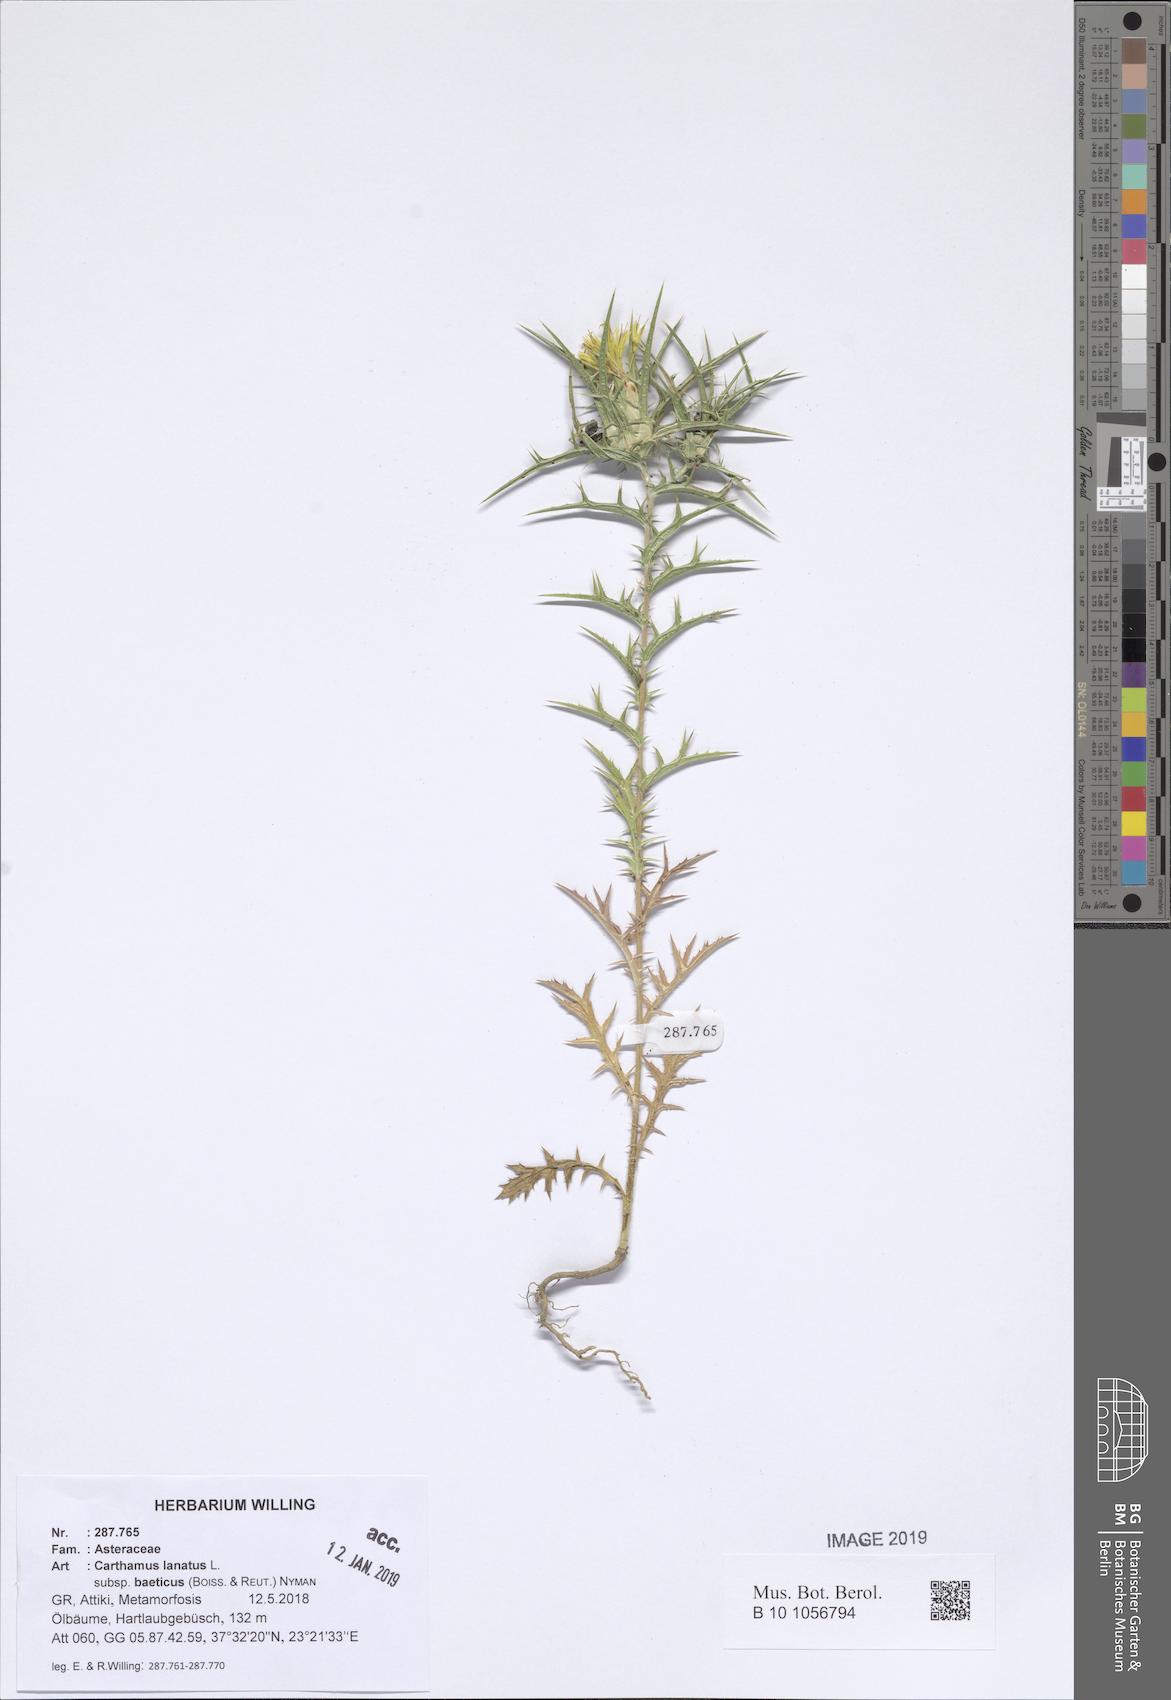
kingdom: Plantae
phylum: Tracheophyta
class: Magnoliopsida
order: Asterales
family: Asteraceae
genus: Carthamus
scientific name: Carthamus creticus
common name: Smooth distaff thistle
